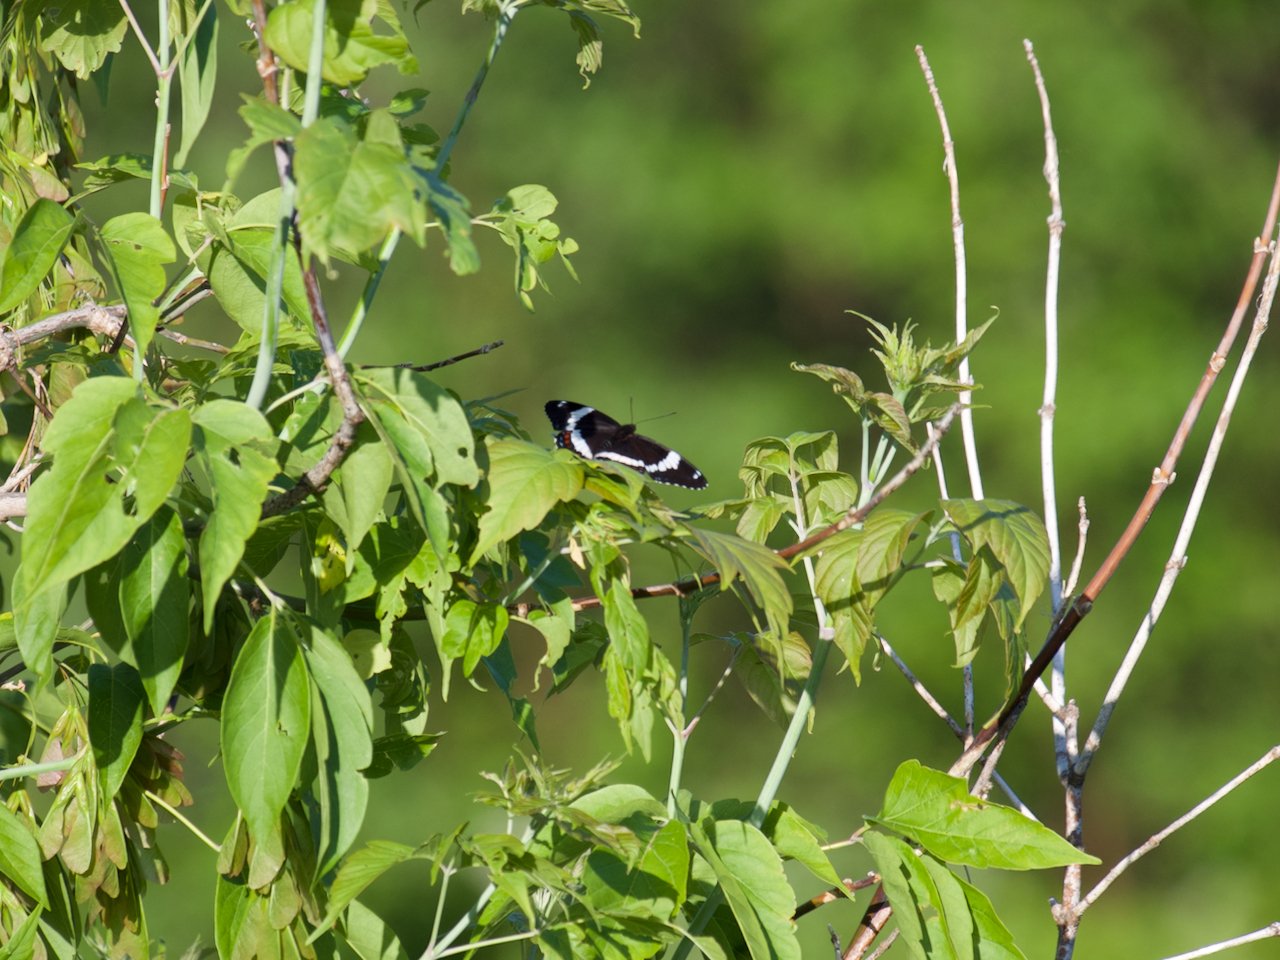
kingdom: Animalia
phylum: Arthropoda
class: Insecta
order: Lepidoptera
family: Nymphalidae
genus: Limenitis
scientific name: Limenitis arthemis
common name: Red-spotted Admiral
